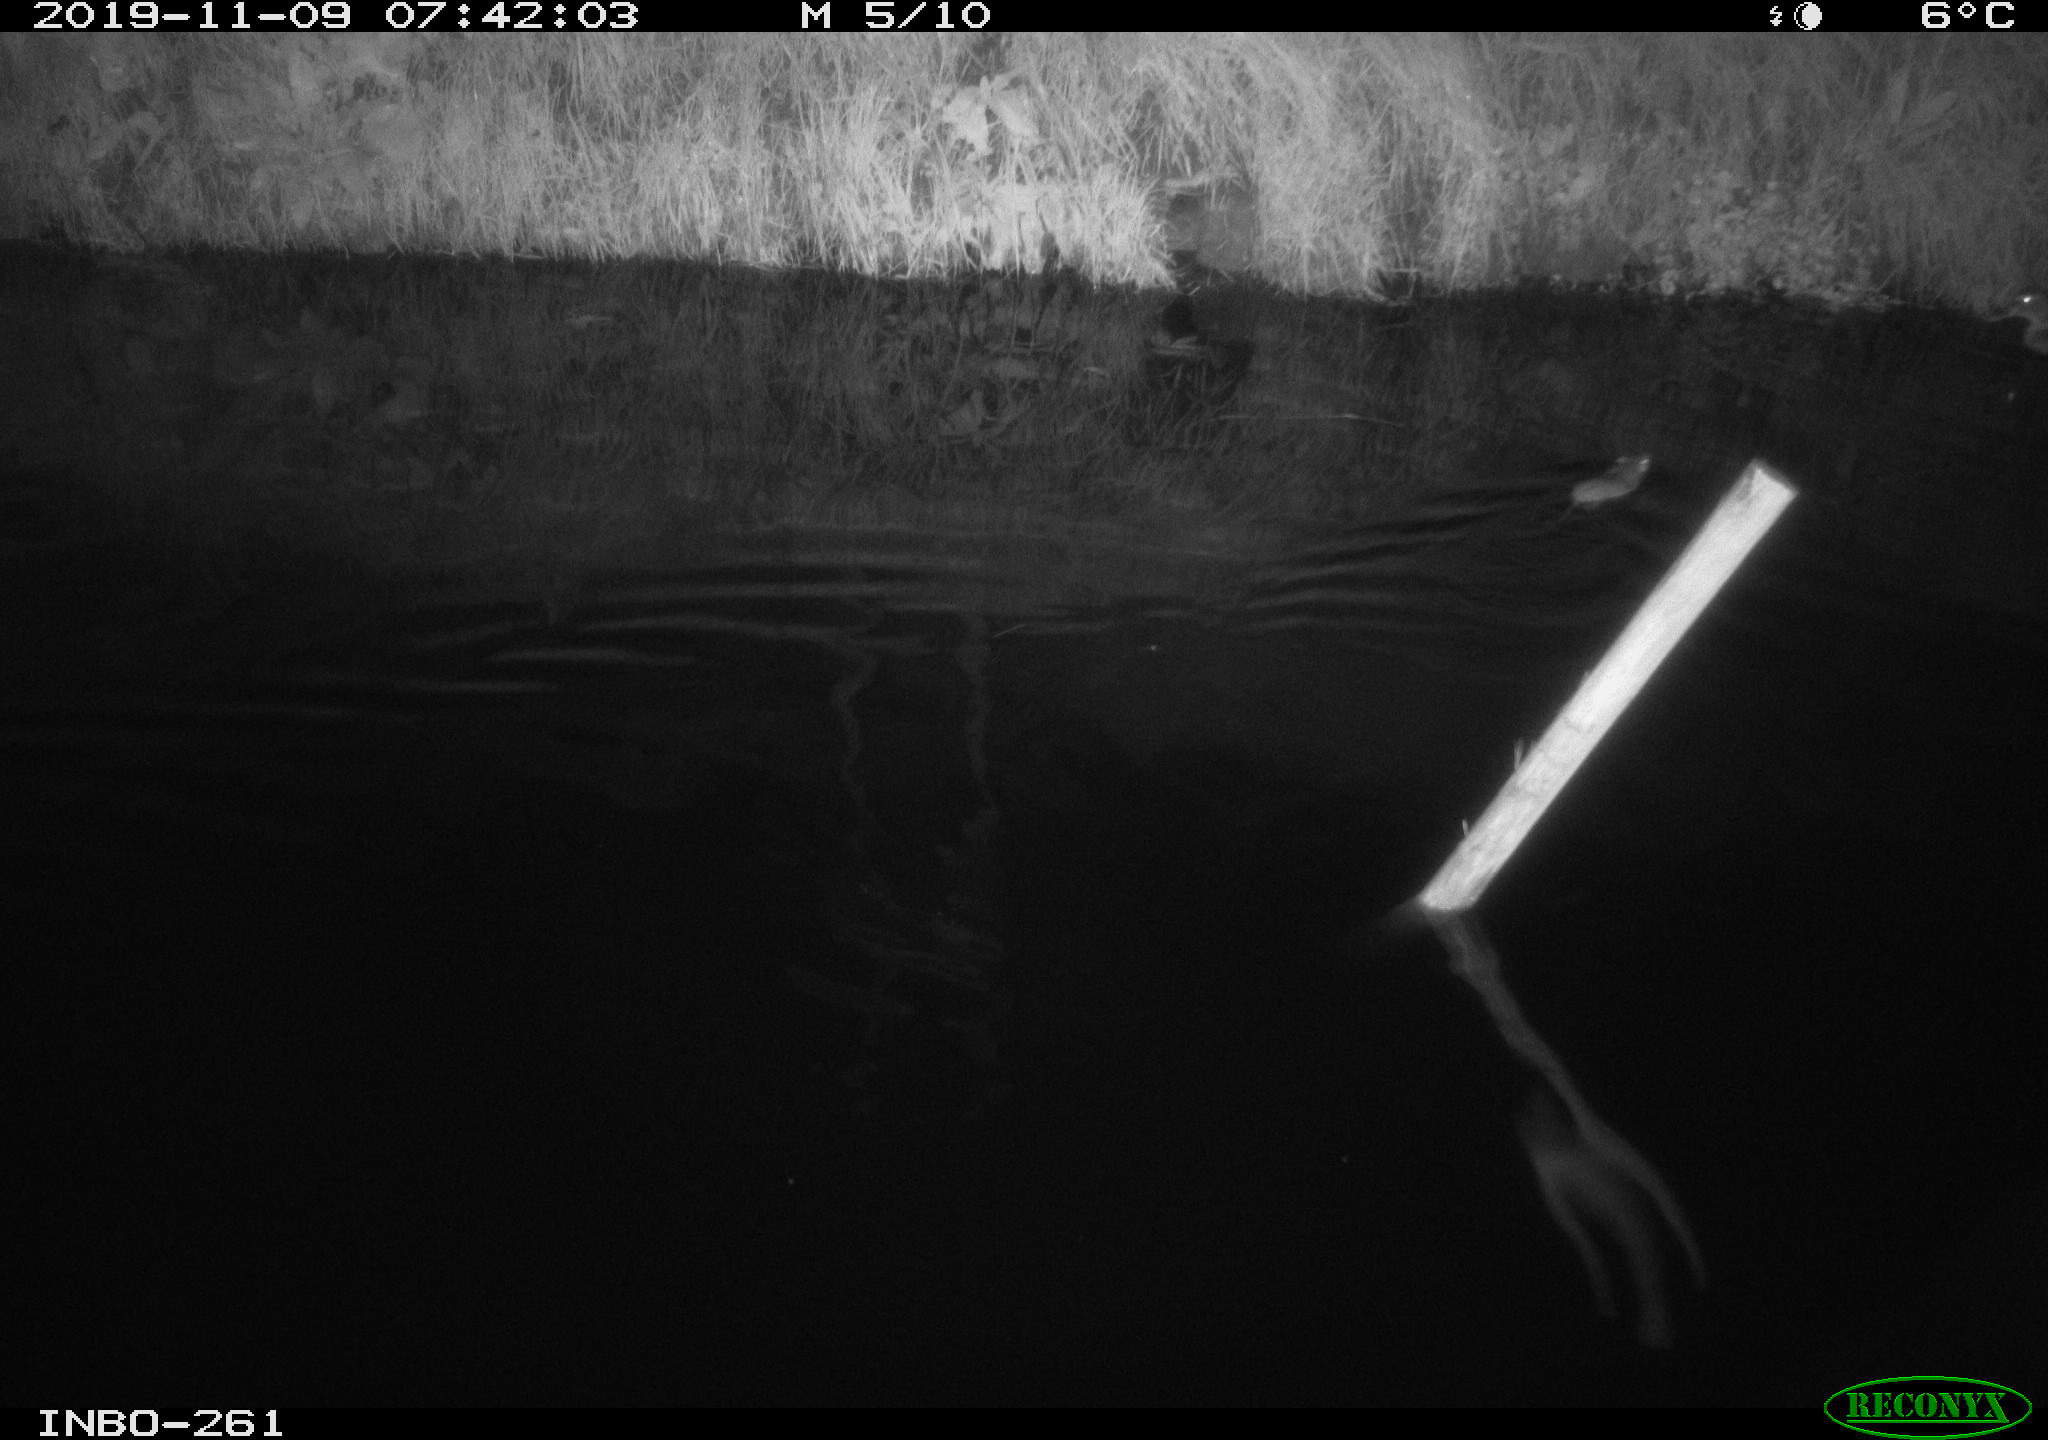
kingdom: Animalia
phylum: Chordata
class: Aves
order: Anseriformes
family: Anatidae
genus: Anas
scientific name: Anas platyrhynchos
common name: Mallard
